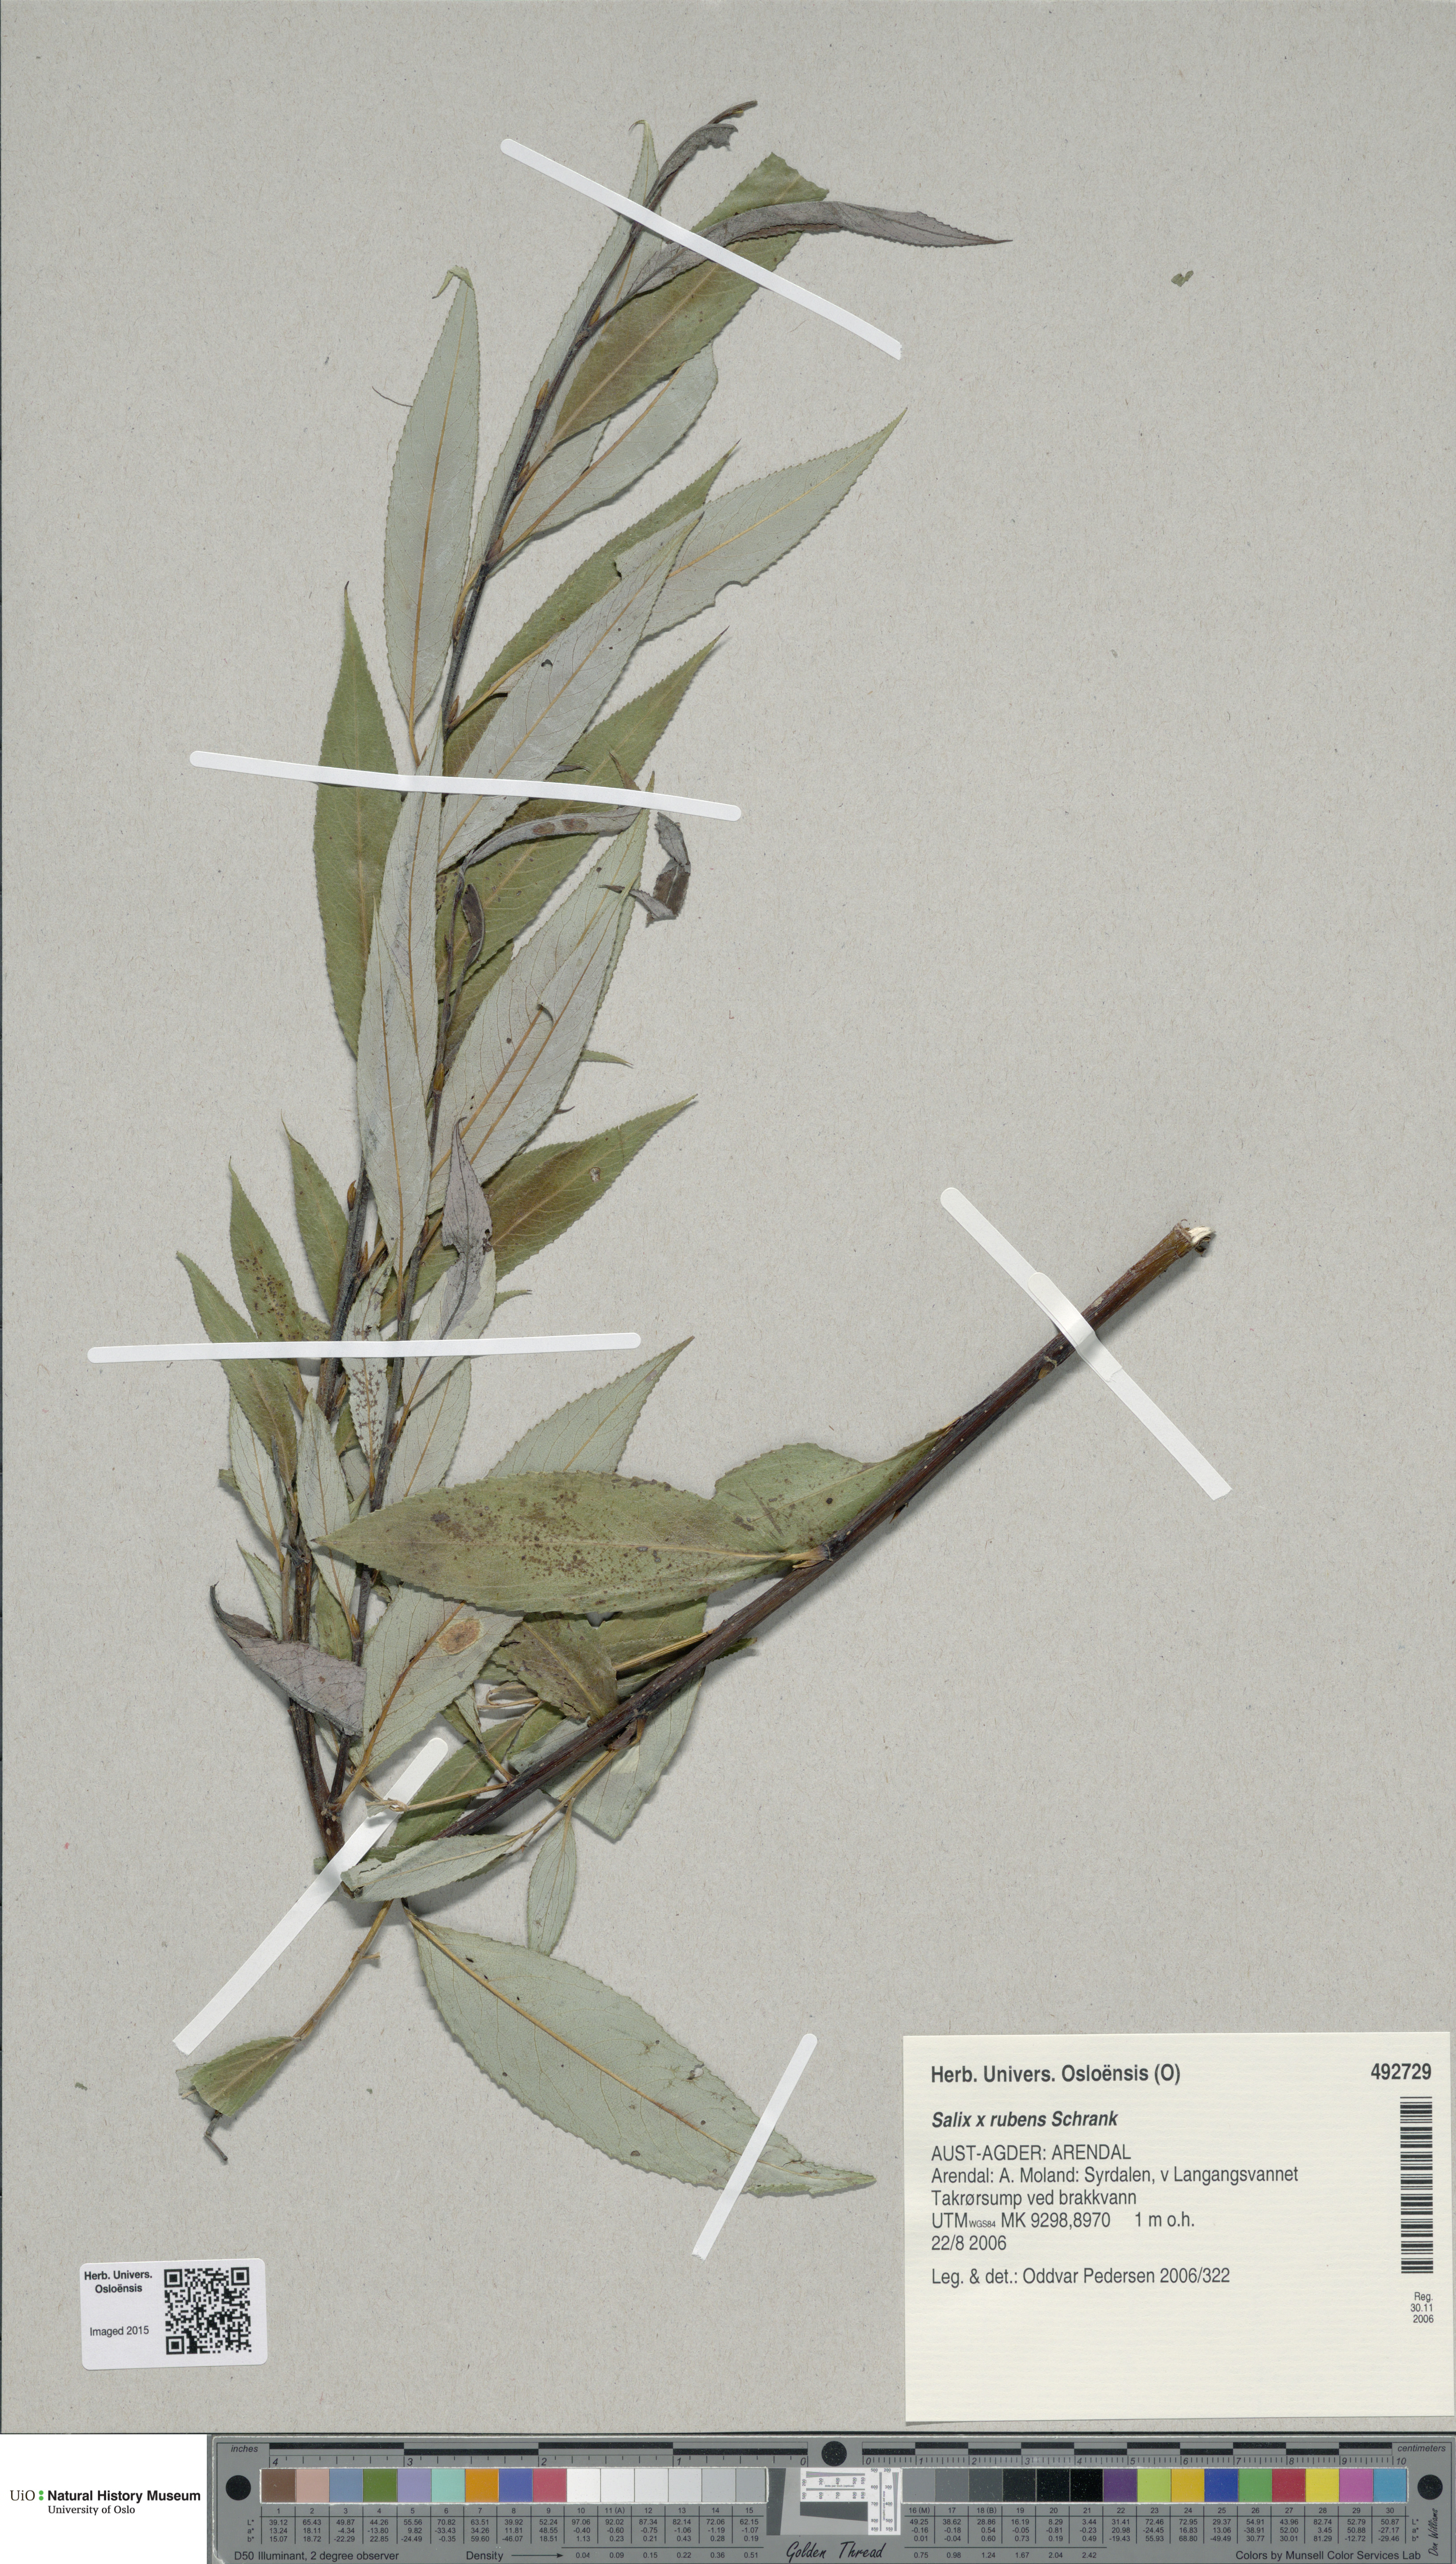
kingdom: Plantae
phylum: Tracheophyta
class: Magnoliopsida
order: Malpighiales
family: Salicaceae
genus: Salix
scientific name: Salix fragilis
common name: Crack willow
